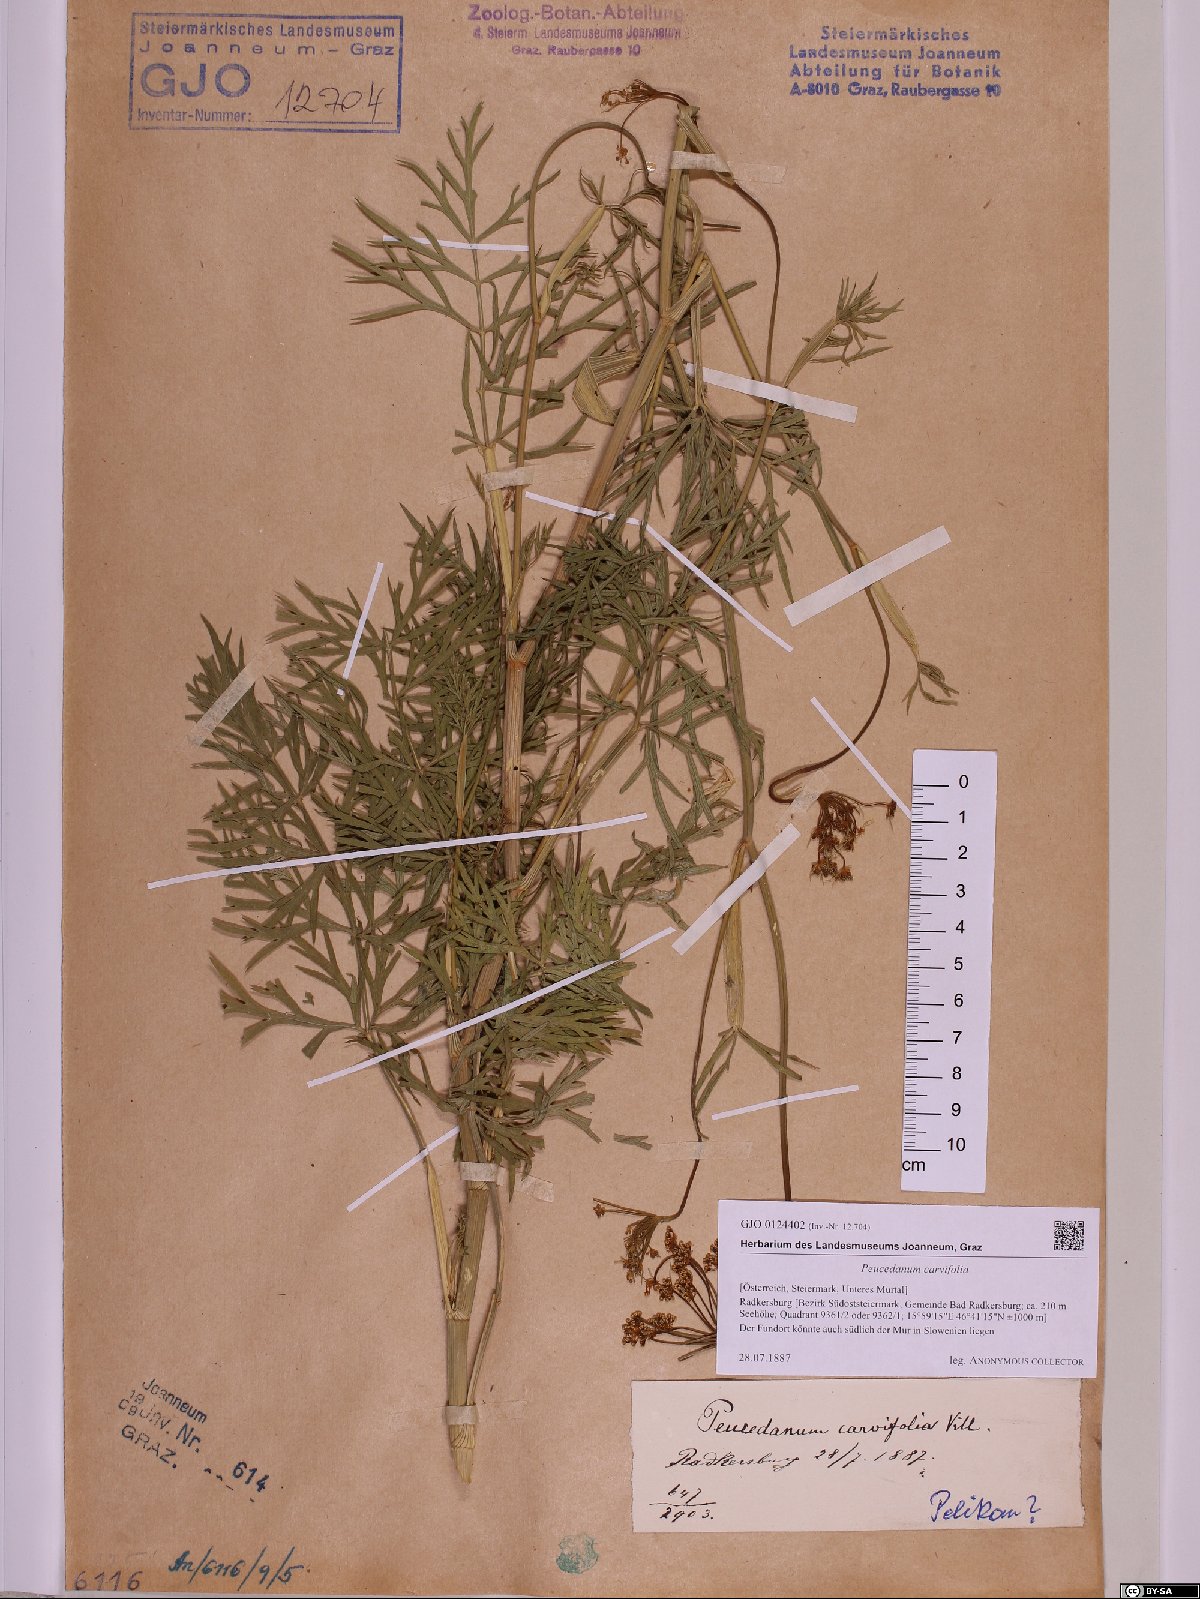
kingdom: Plantae
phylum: Tracheophyta
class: Magnoliopsida
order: Apiales
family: Apiaceae
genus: Dichoropetalum
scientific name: Dichoropetalum carvifolia
